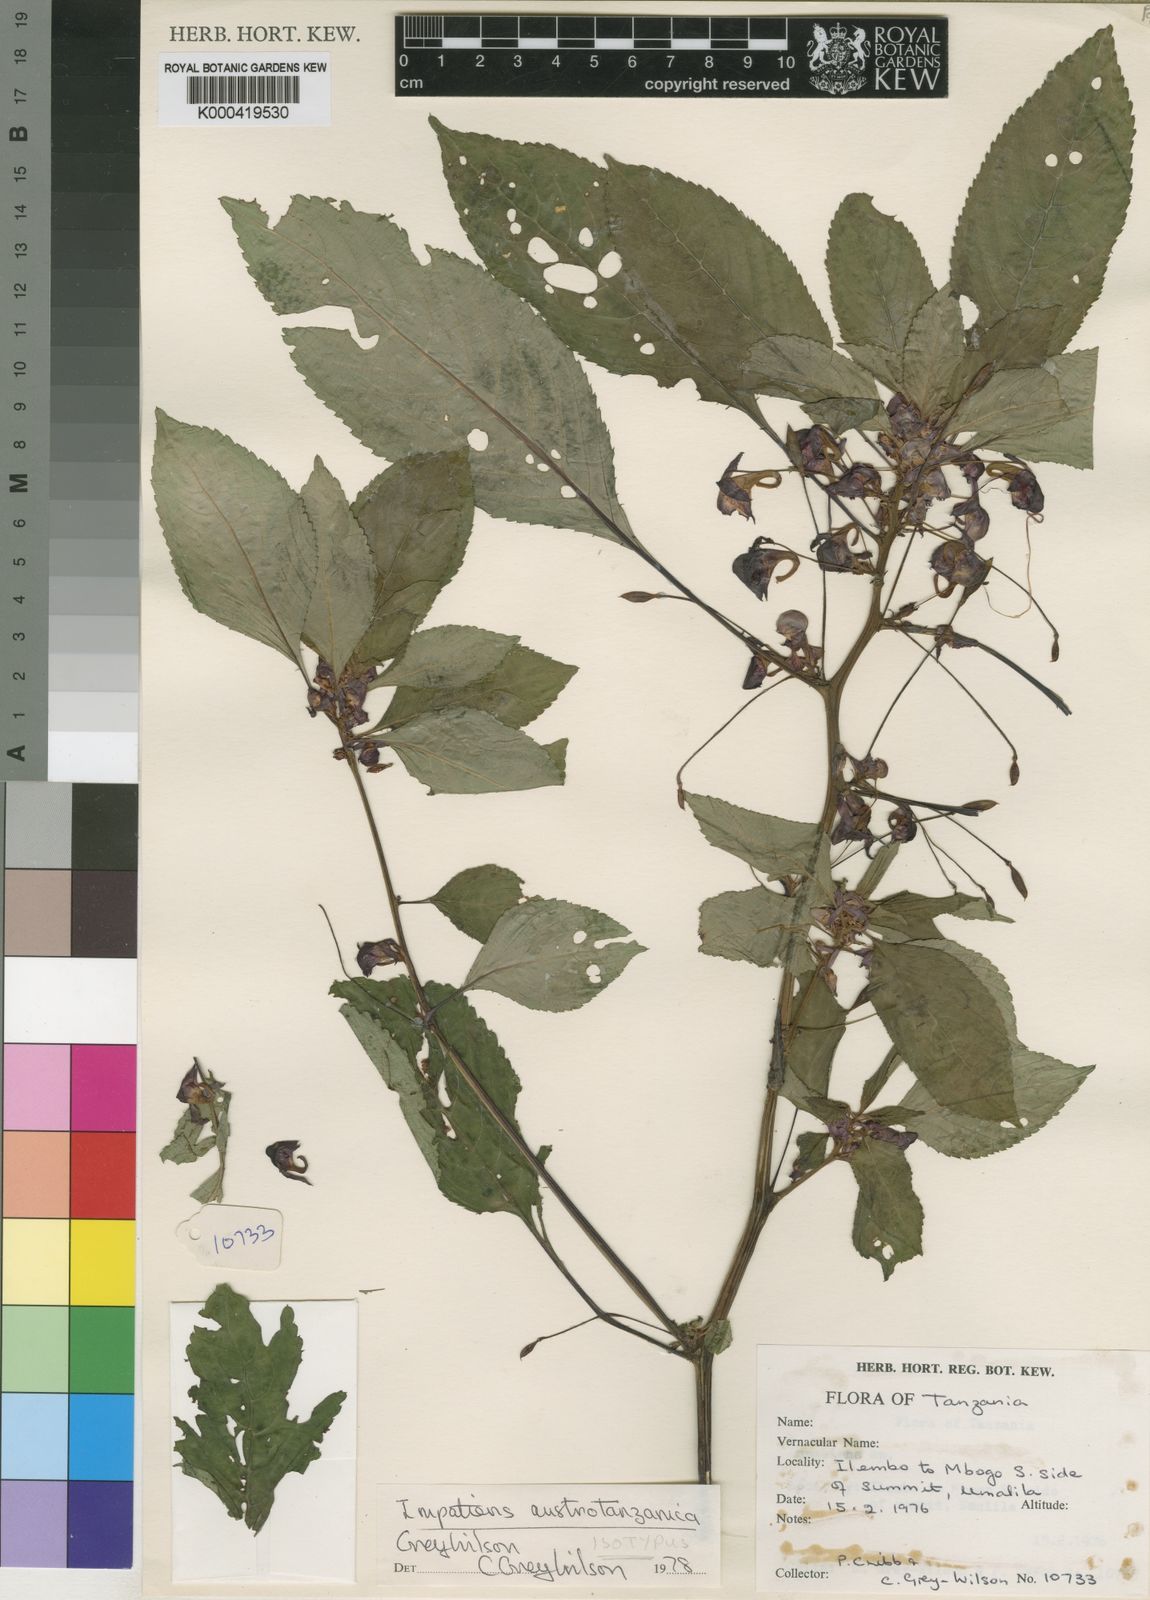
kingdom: Plantae
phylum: Tracheophyta
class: Magnoliopsida
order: Ericales
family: Balsaminaceae
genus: Impatiens
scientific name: Impatiens austrotanzanica
